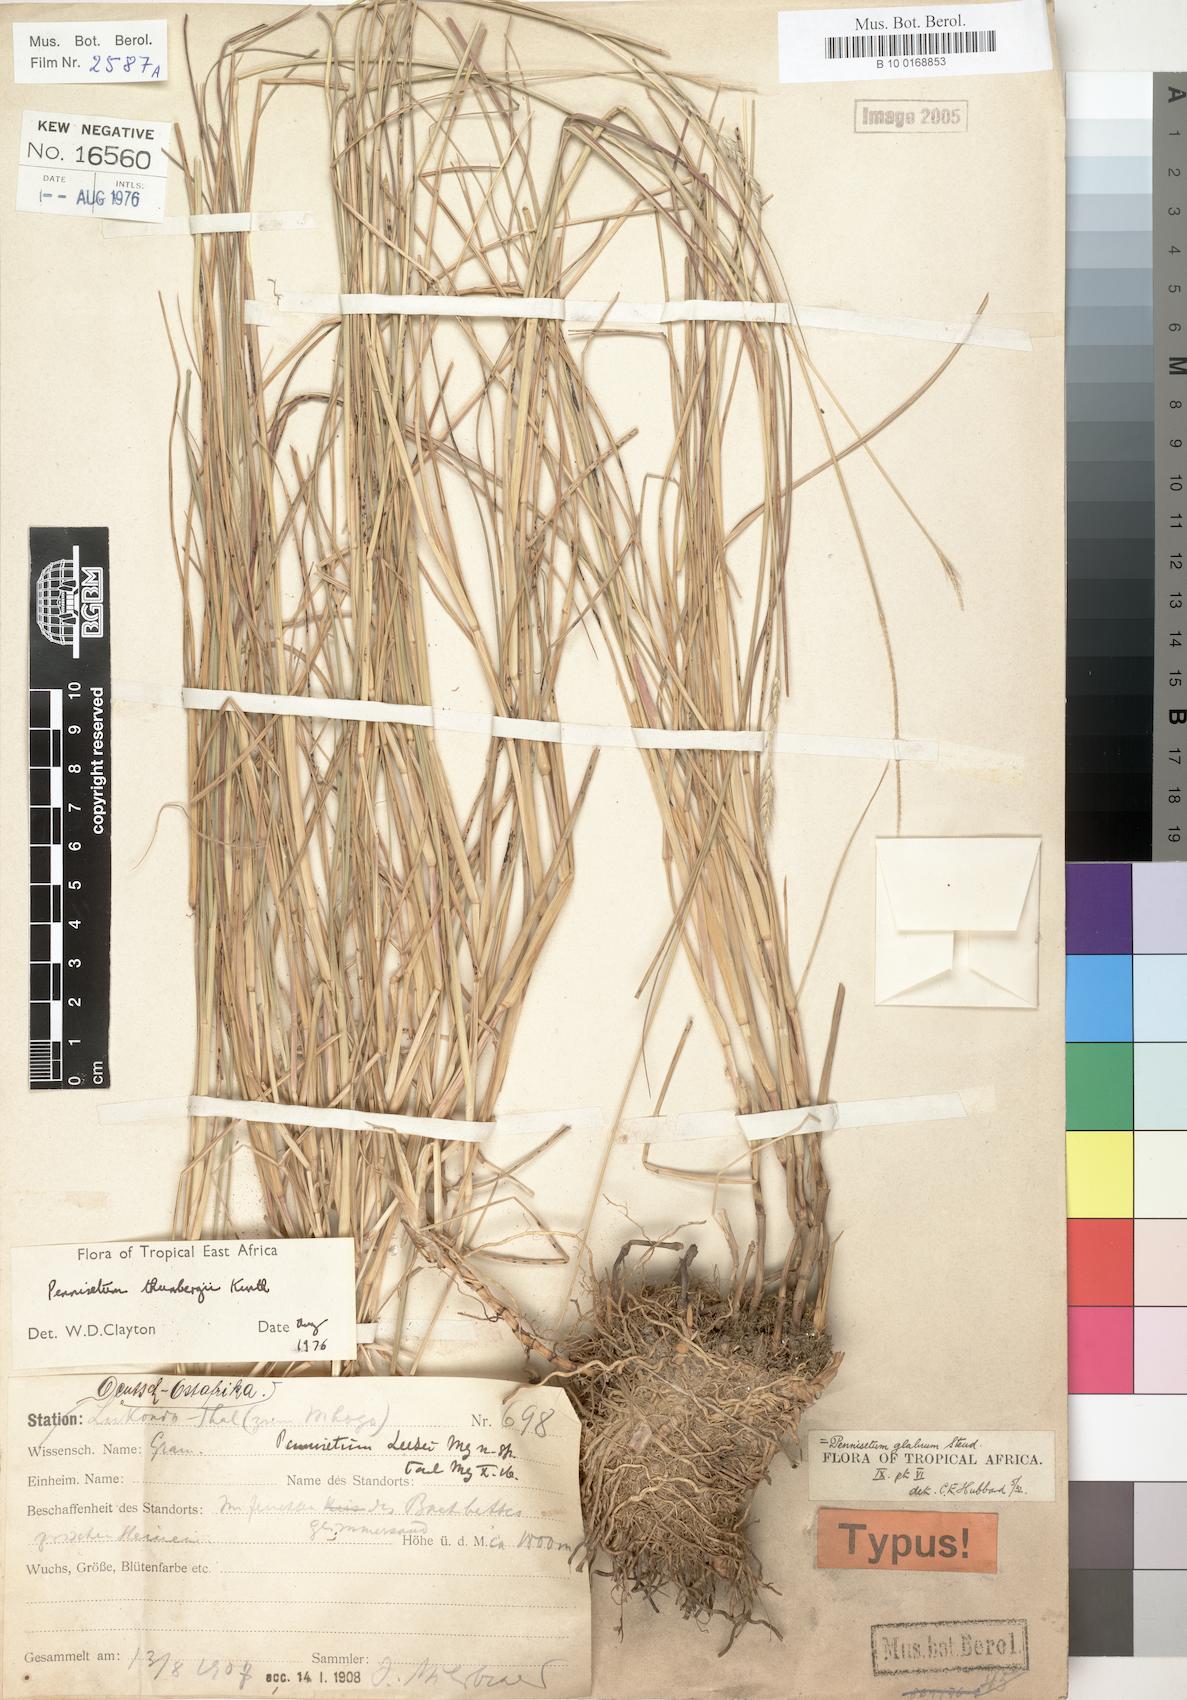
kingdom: Plantae
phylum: Tracheophyta
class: Liliopsida
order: Poales
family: Poaceae
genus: Cenchrus
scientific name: Cenchrus geniculatus
